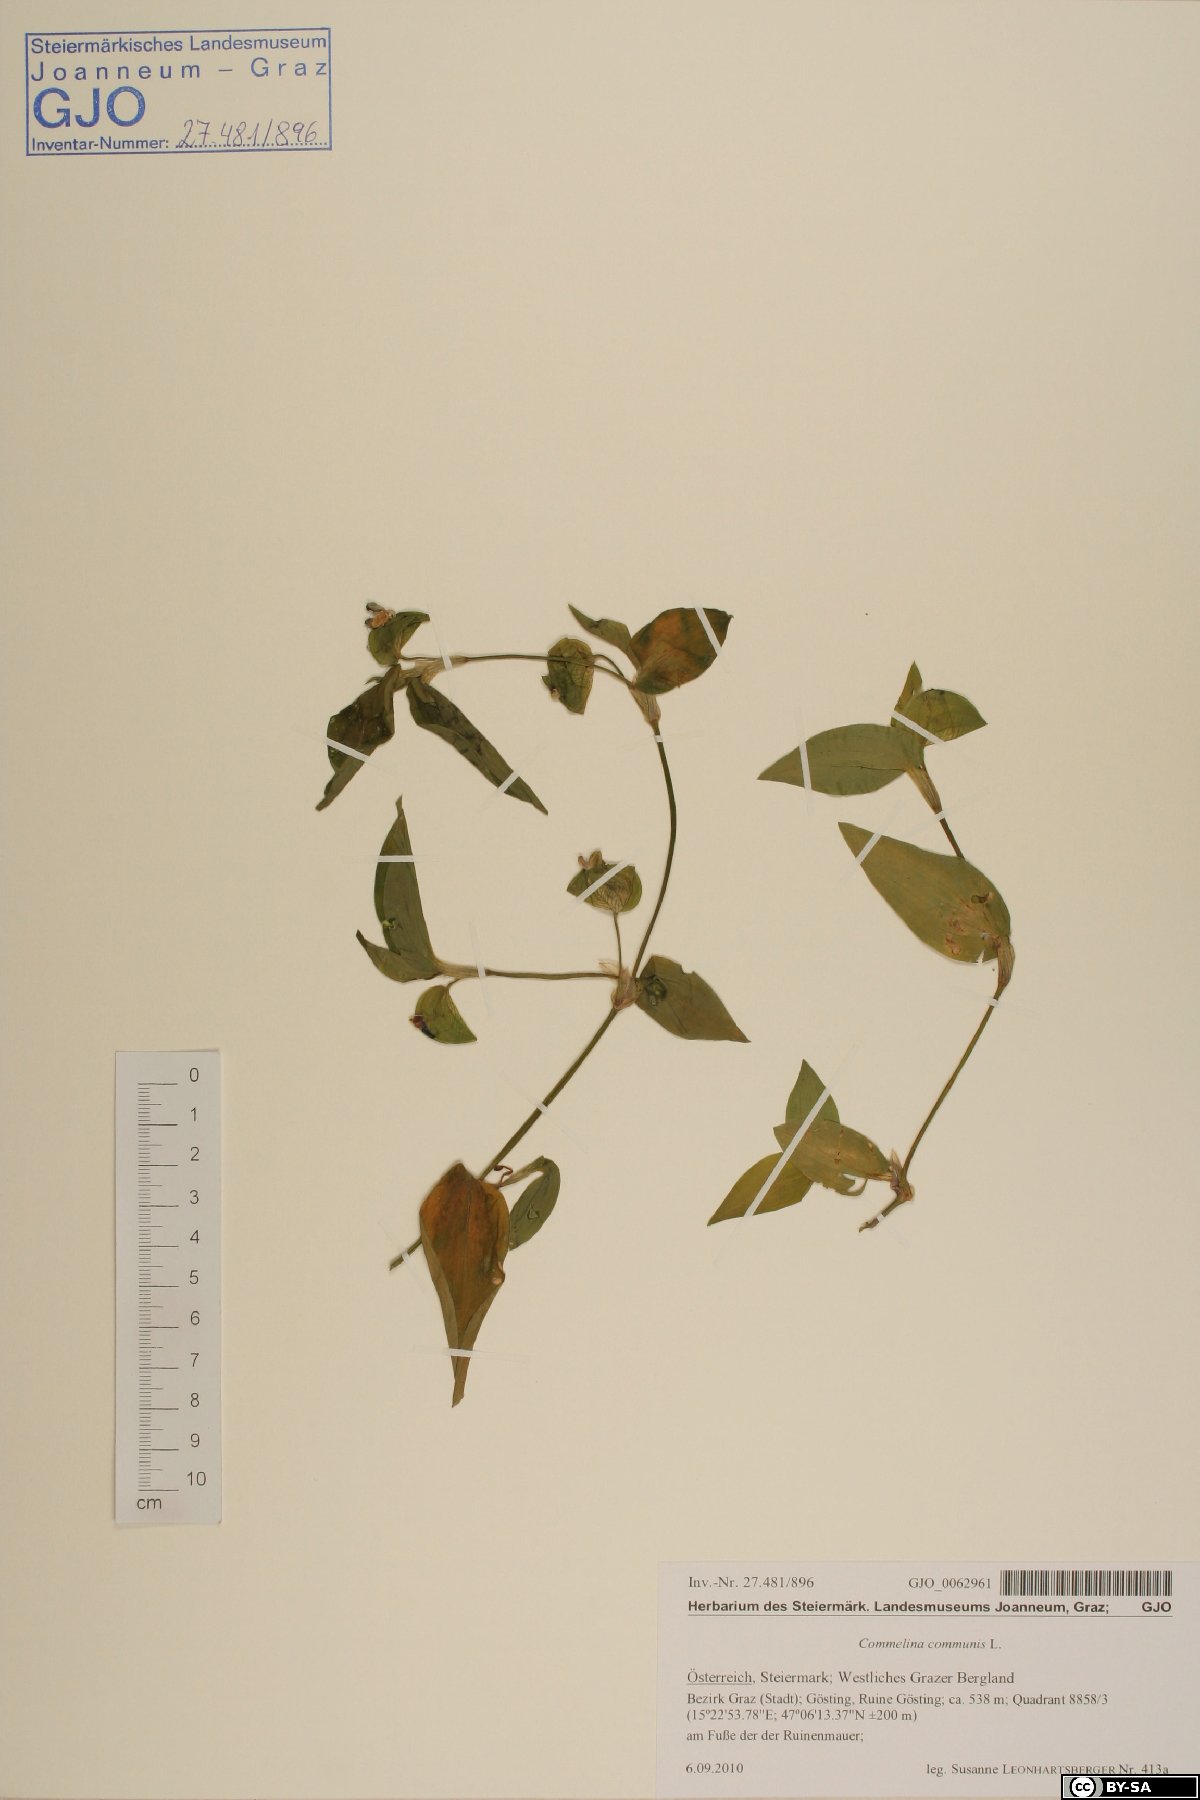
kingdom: Plantae
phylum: Tracheophyta
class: Liliopsida
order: Commelinales
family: Commelinaceae
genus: Commelina
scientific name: Commelina communis
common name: Asiatic dayflower
